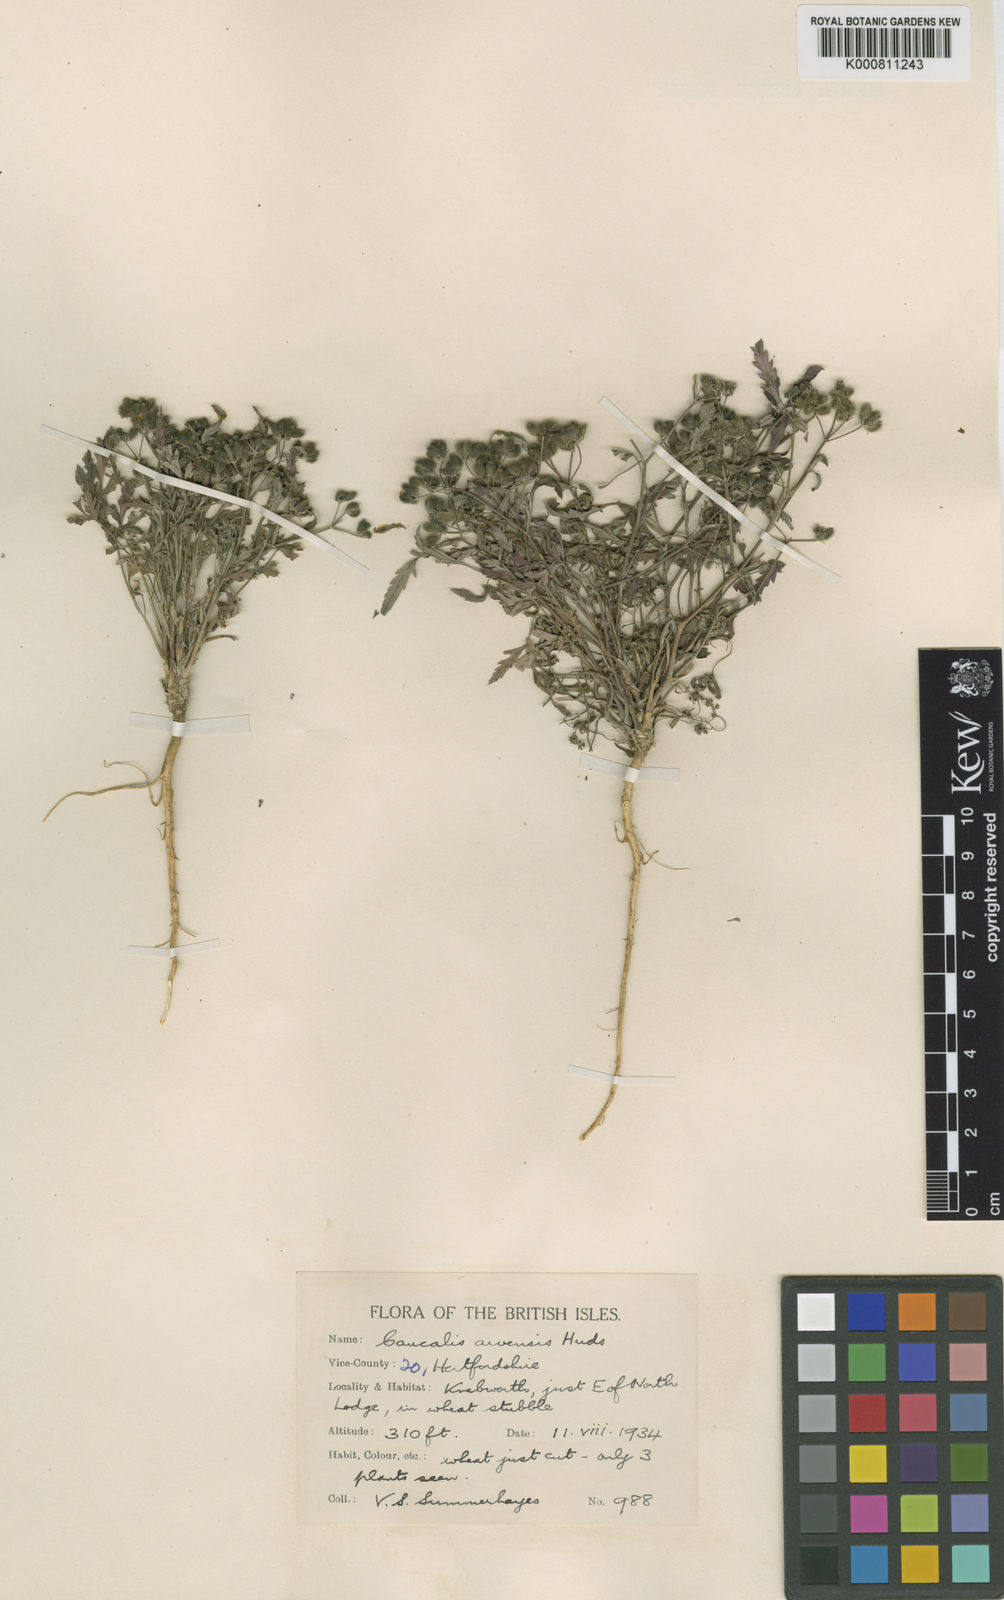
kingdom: Plantae
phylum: Tracheophyta
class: Magnoliopsida
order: Apiales
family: Apiaceae
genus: Torilis
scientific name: Torilis arvensis
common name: Spreading hedge-parsley
